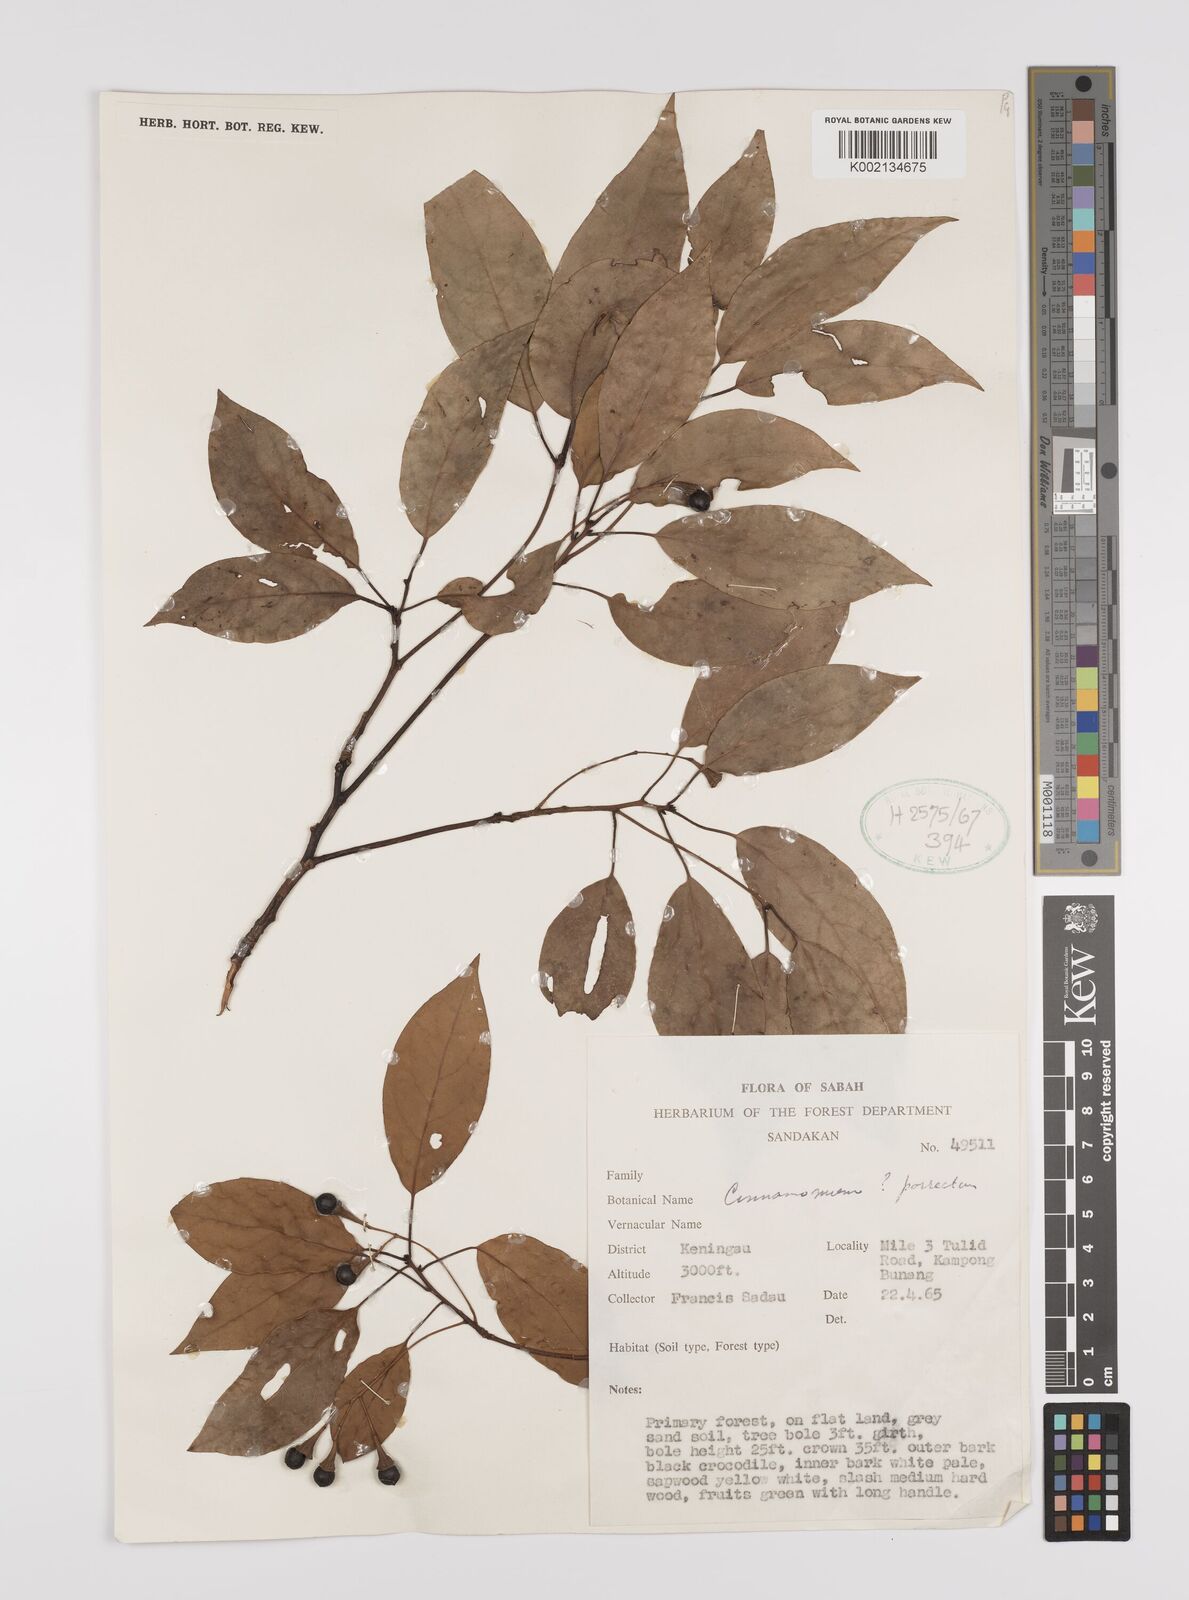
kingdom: Plantae
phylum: Tracheophyta
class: Magnoliopsida
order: Laurales
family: Lauraceae
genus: Cinnamomum
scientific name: Cinnamomum parthenoxylon
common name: Martaban camphor wood
